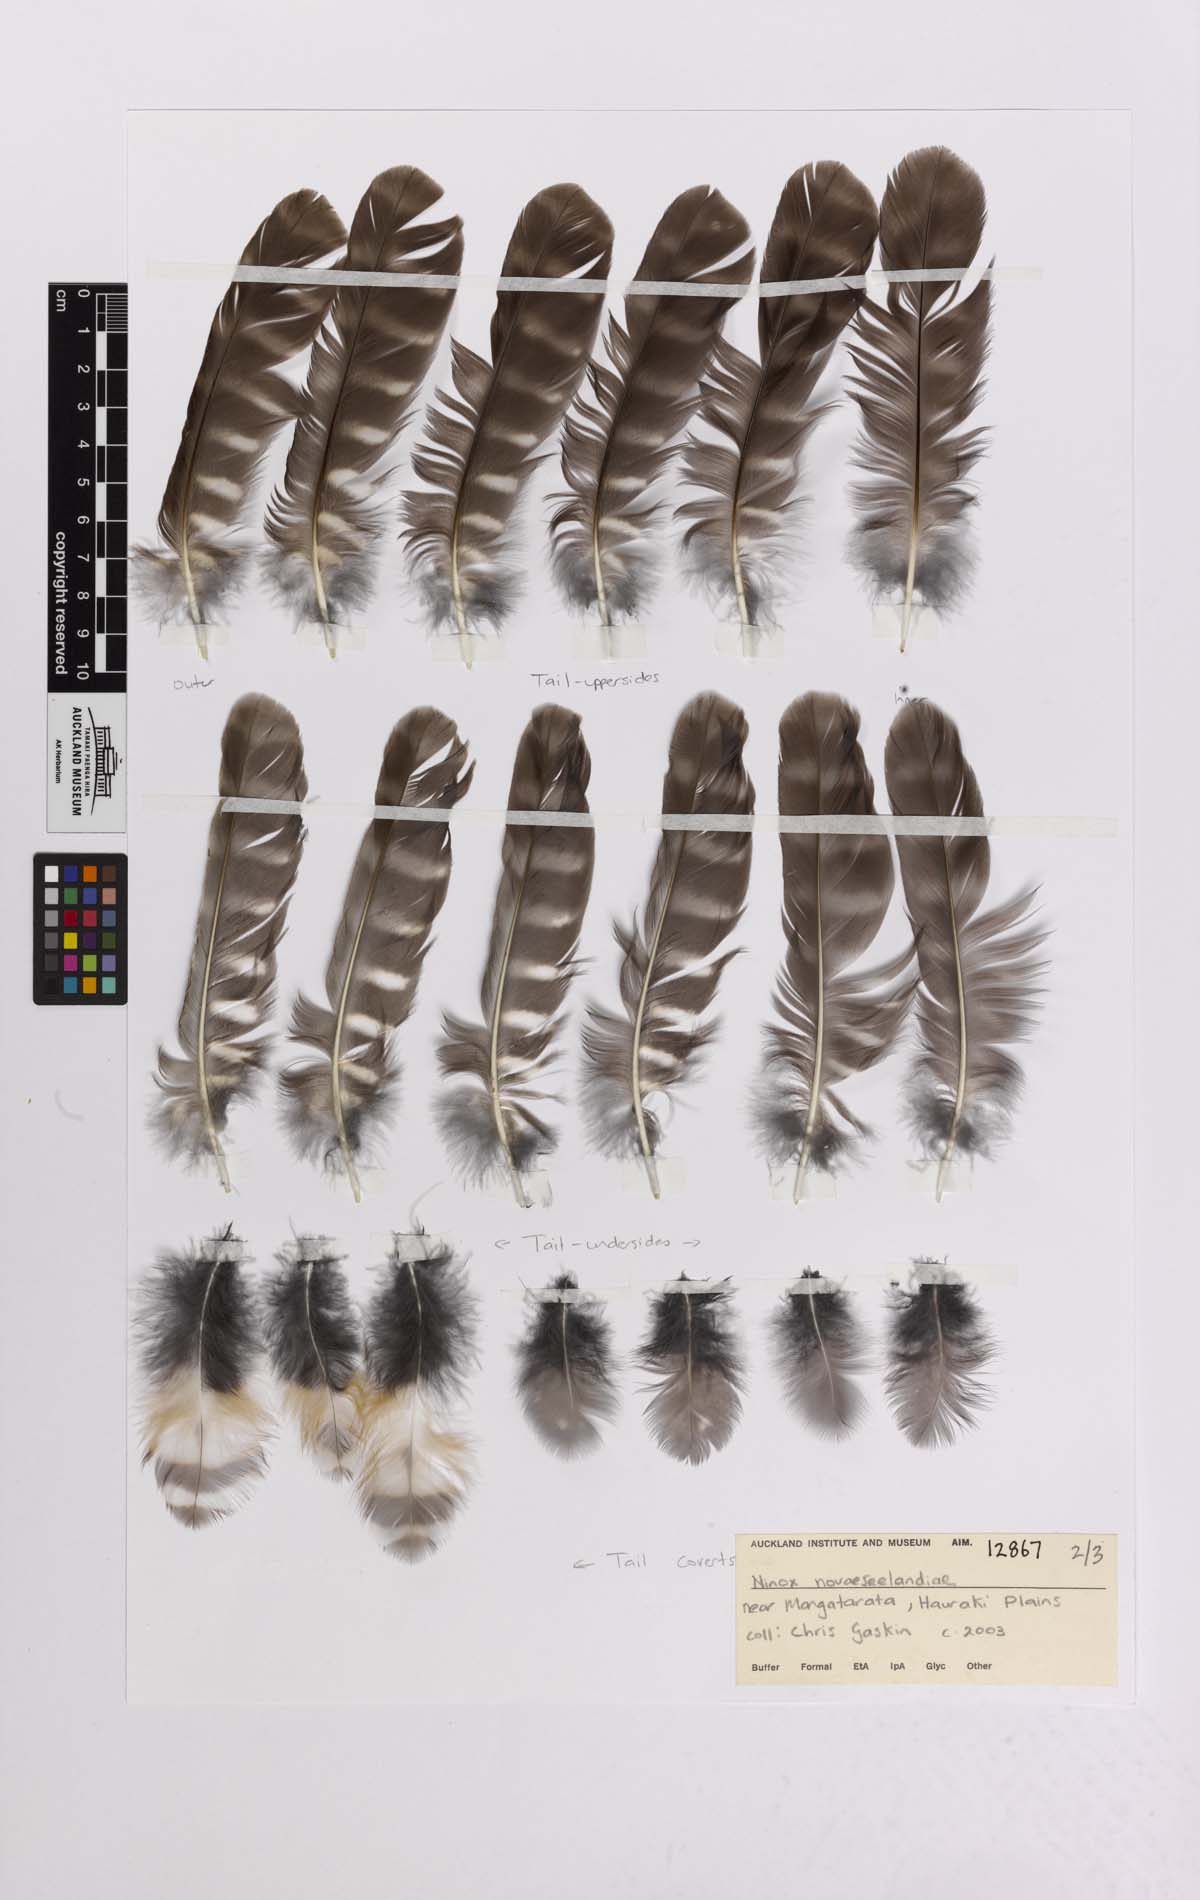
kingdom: Animalia
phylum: Chordata
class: Aves
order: Strigiformes
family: Strigidae
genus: Ninox
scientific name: Ninox novaeseelandiae
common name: Morepork
